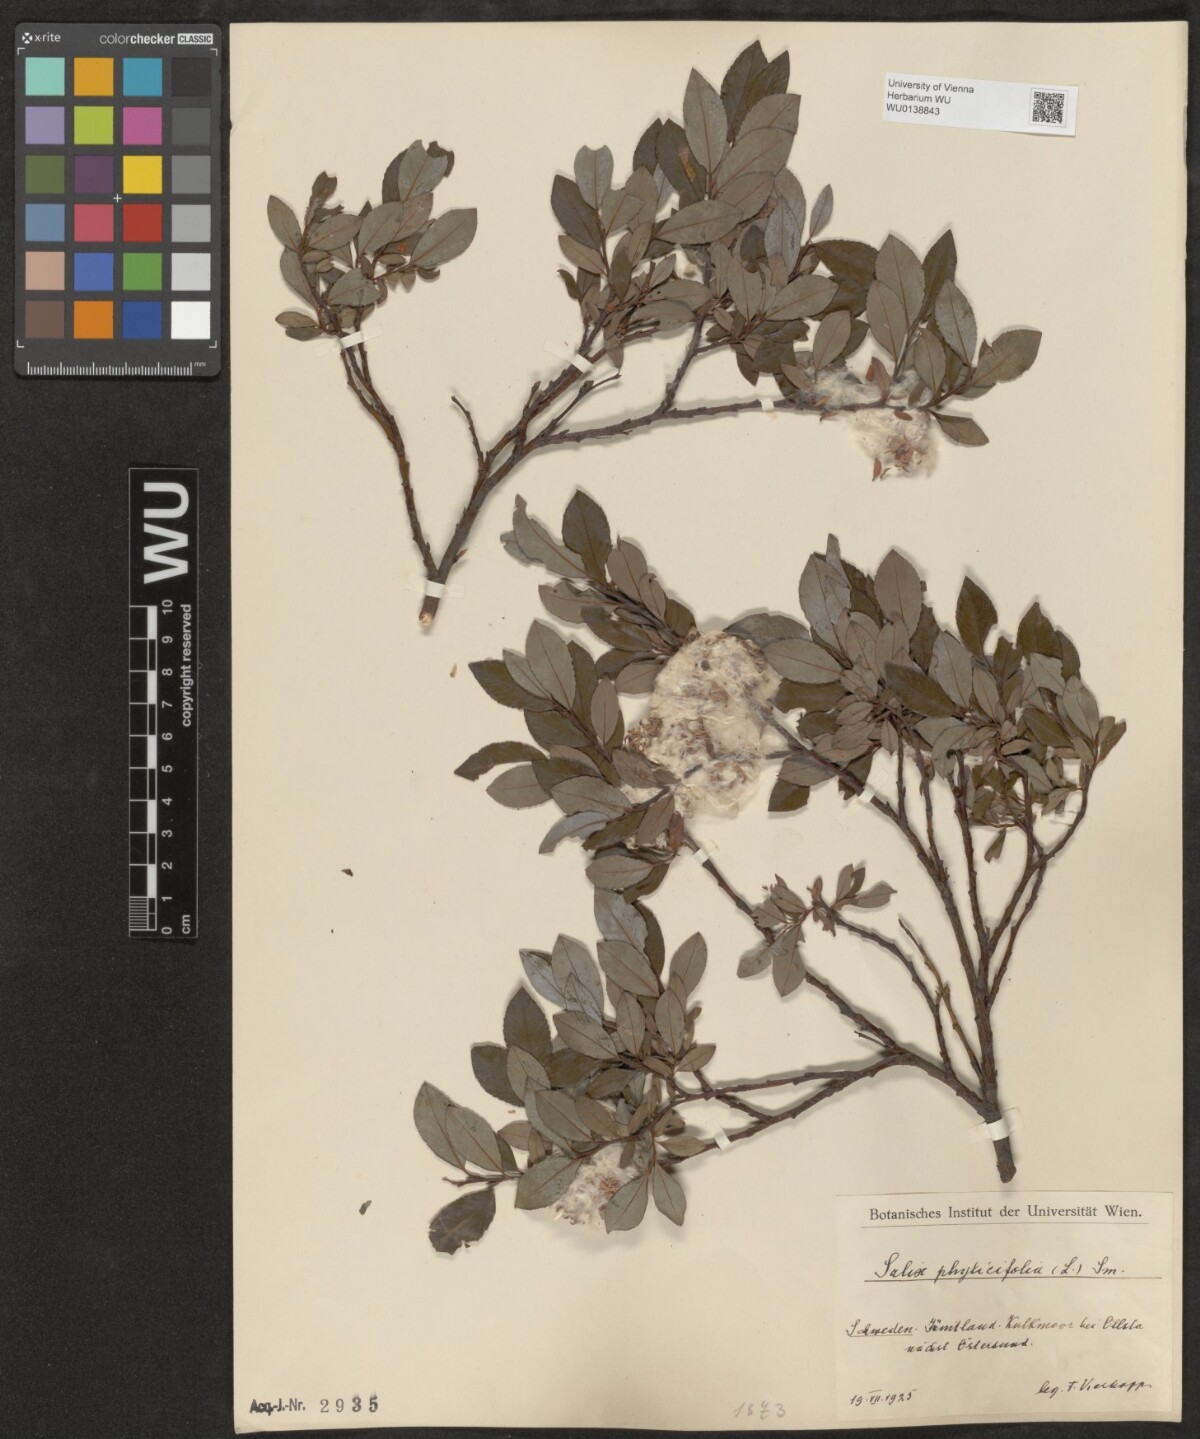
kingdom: Plantae
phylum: Tracheophyta
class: Magnoliopsida
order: Malpighiales
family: Salicaceae
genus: Salix
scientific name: Salix phylicifolia
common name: Tea-leaved willow
